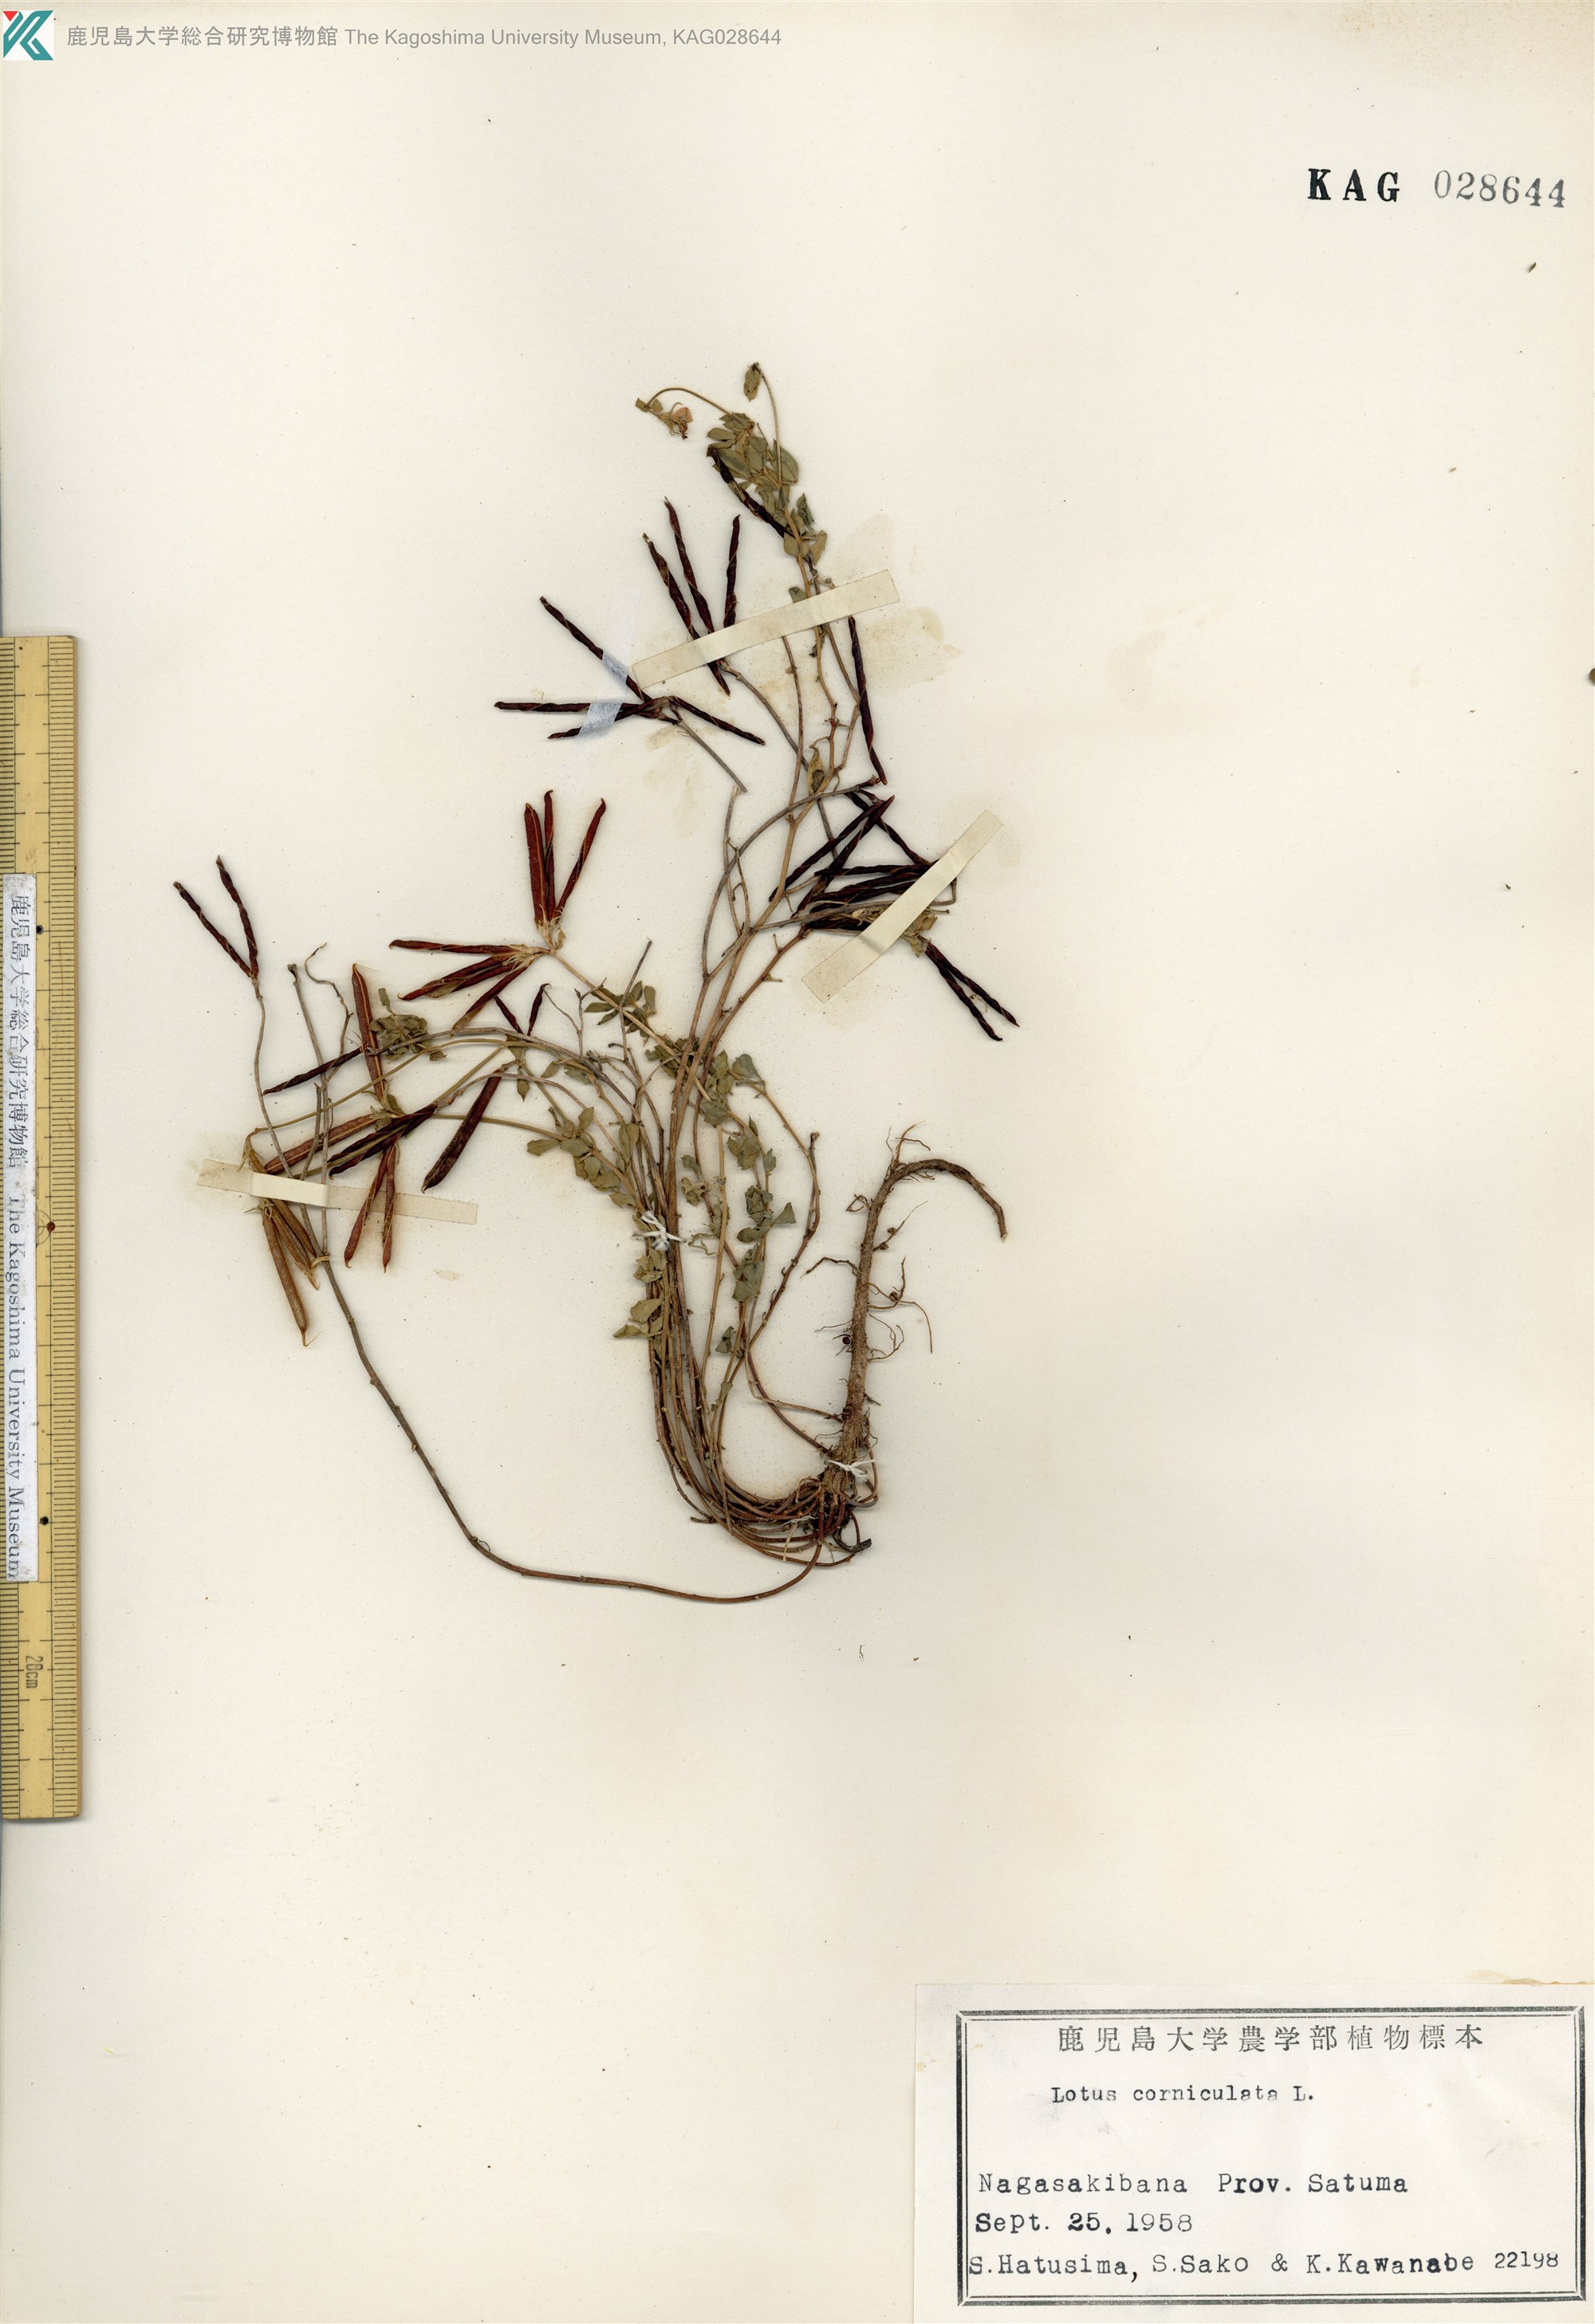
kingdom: Plantae
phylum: Tracheophyta
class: Magnoliopsida
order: Fabales
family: Fabaceae
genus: Lotus
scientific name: Lotus japonicus
